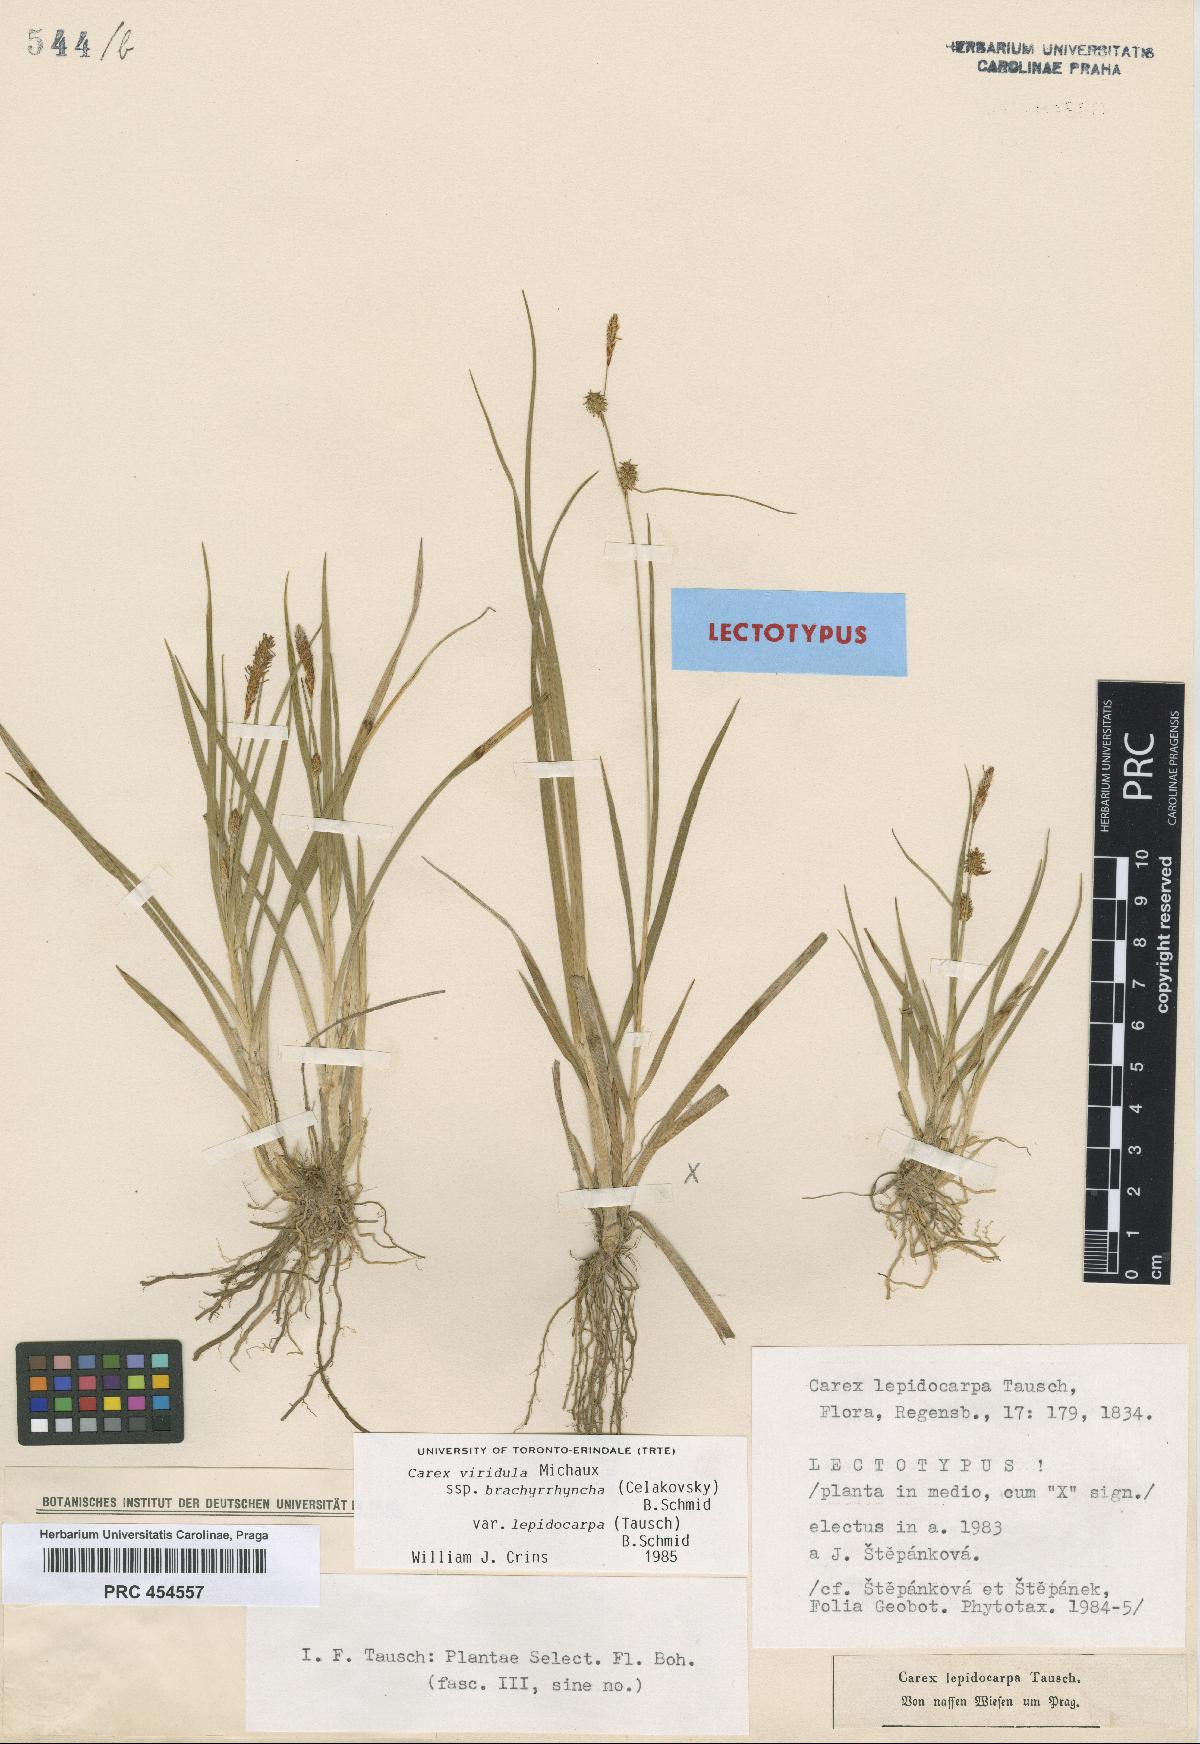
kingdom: Plantae
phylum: Tracheophyta
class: Liliopsida
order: Poales
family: Cyperaceae
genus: Carex
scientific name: Carex lepidocarpa
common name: Long-stalked yellow-sedge
